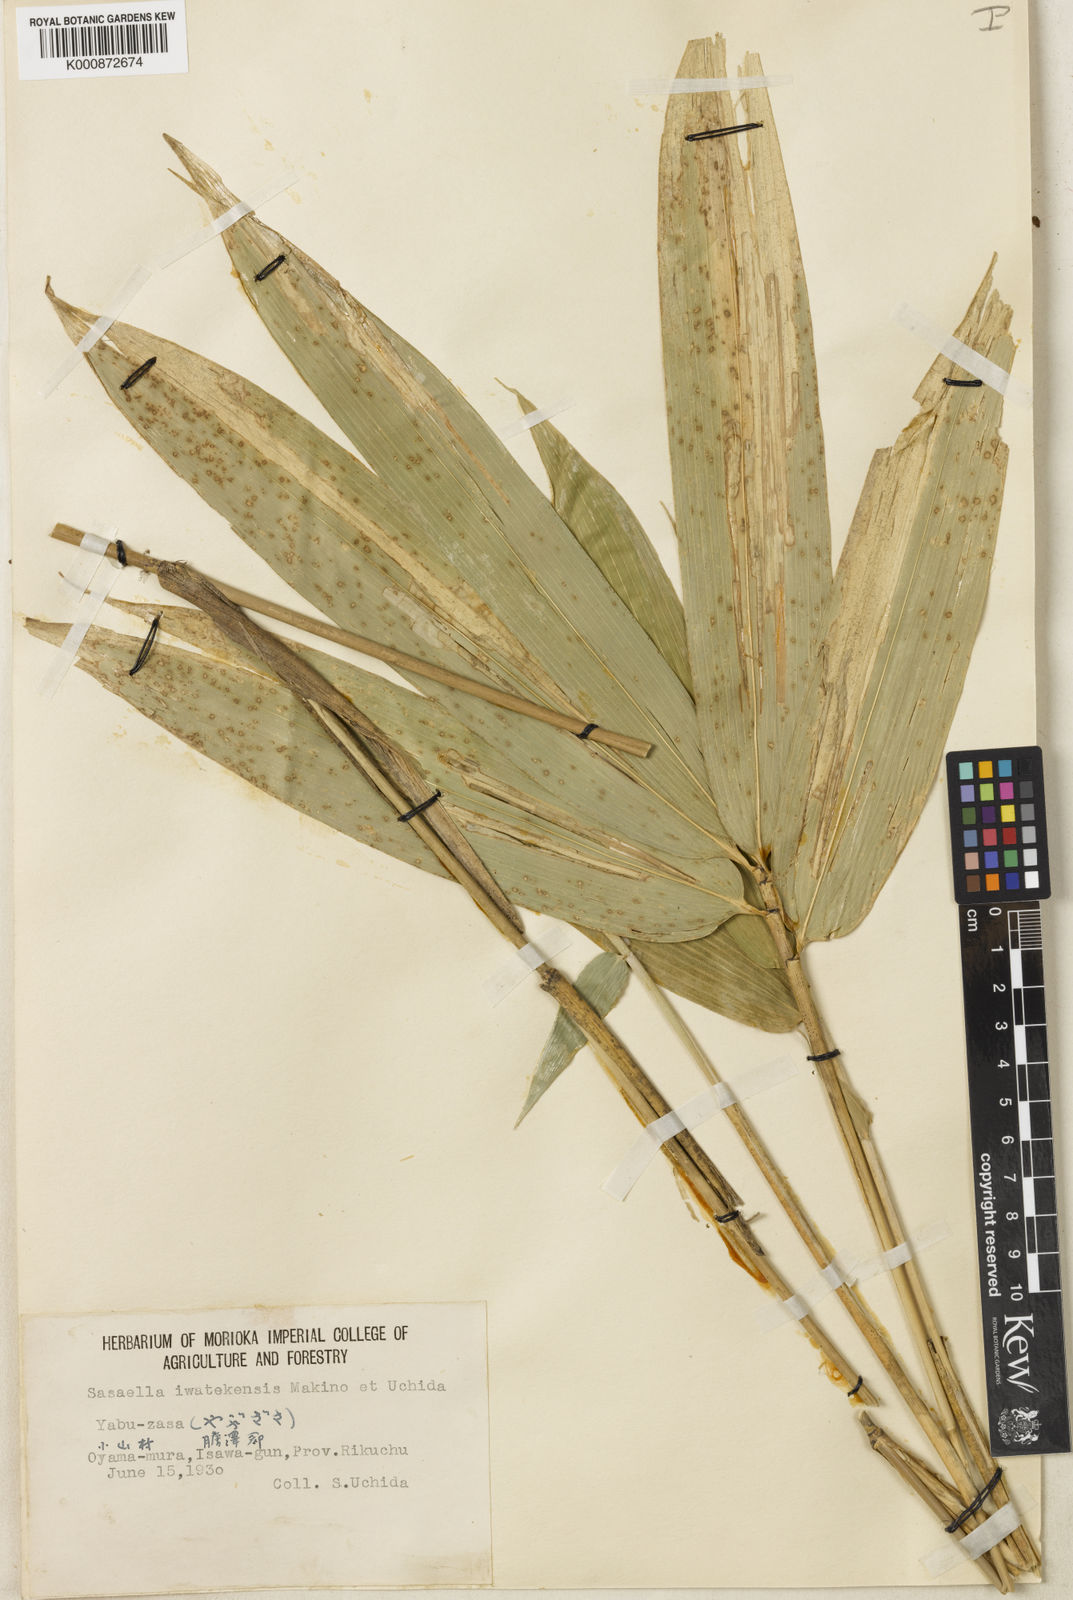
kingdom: Plantae
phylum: Tracheophyta
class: Liliopsida
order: Poales
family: Poaceae
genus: Sasaella
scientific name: Sasaella hidaensis
